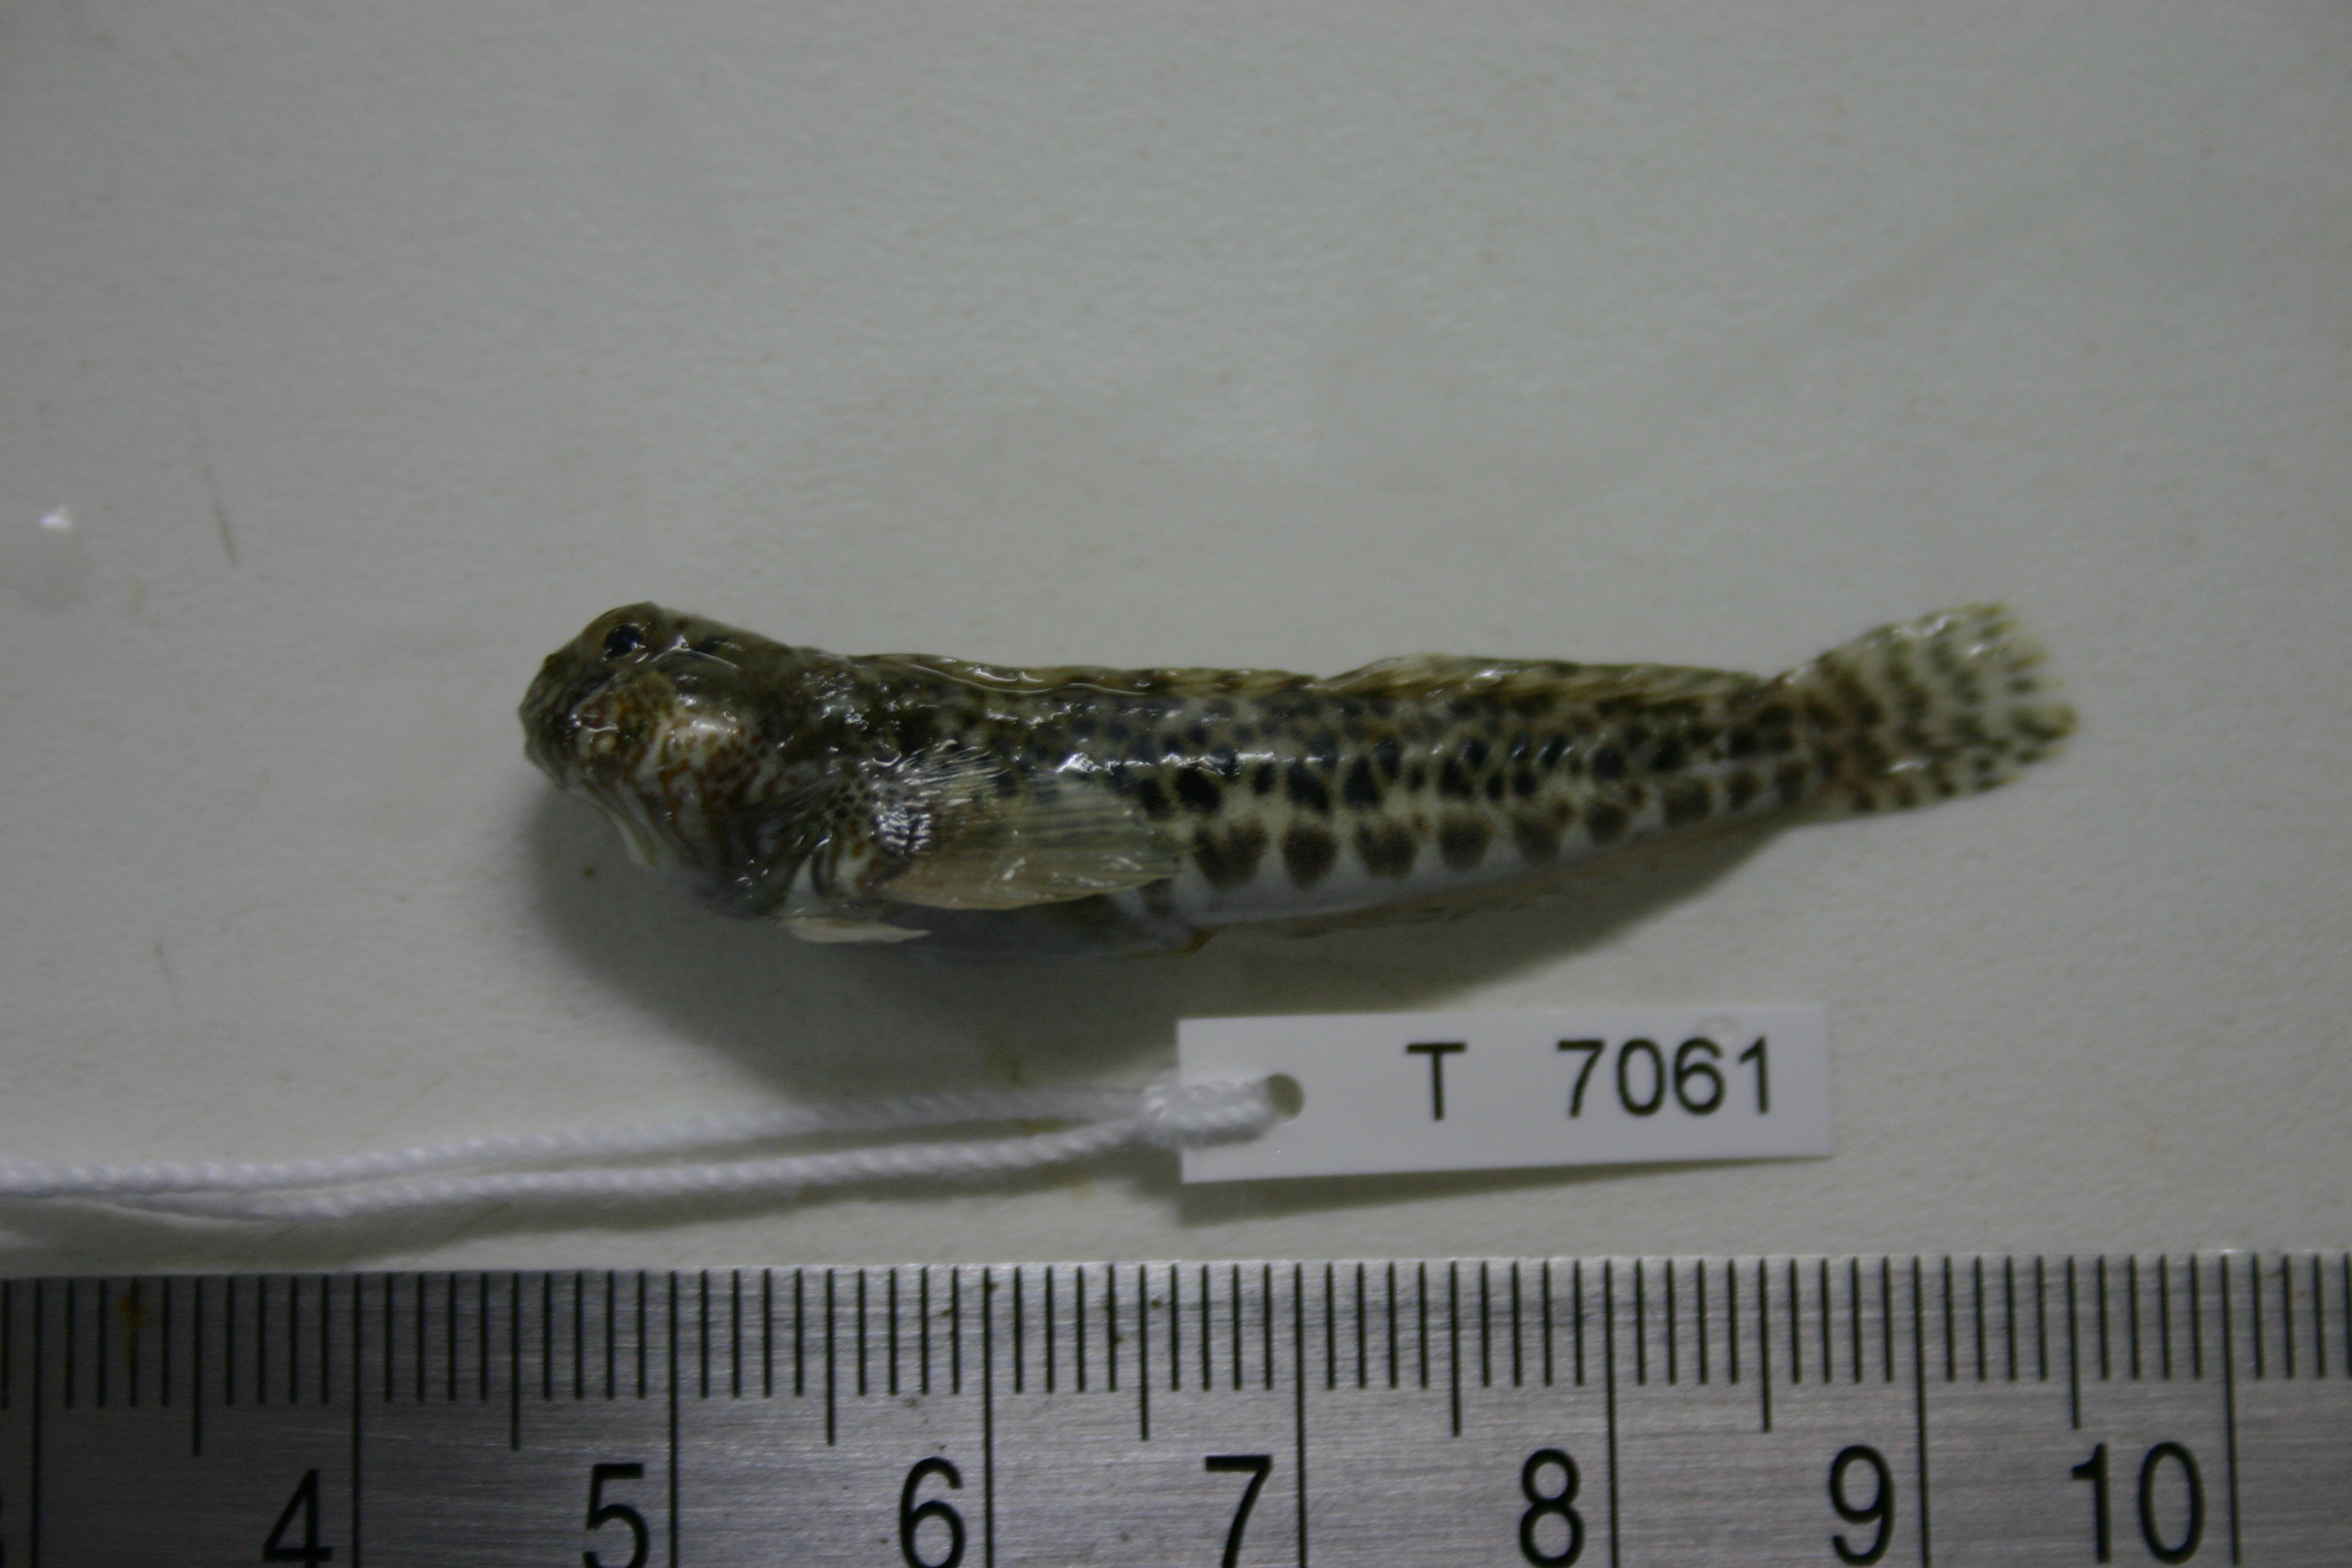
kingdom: Animalia
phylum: Chordata
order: Perciformes
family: Blenniidae
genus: Entomacrodus
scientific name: Entomacrodus striatus
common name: Pearly rockskipper
